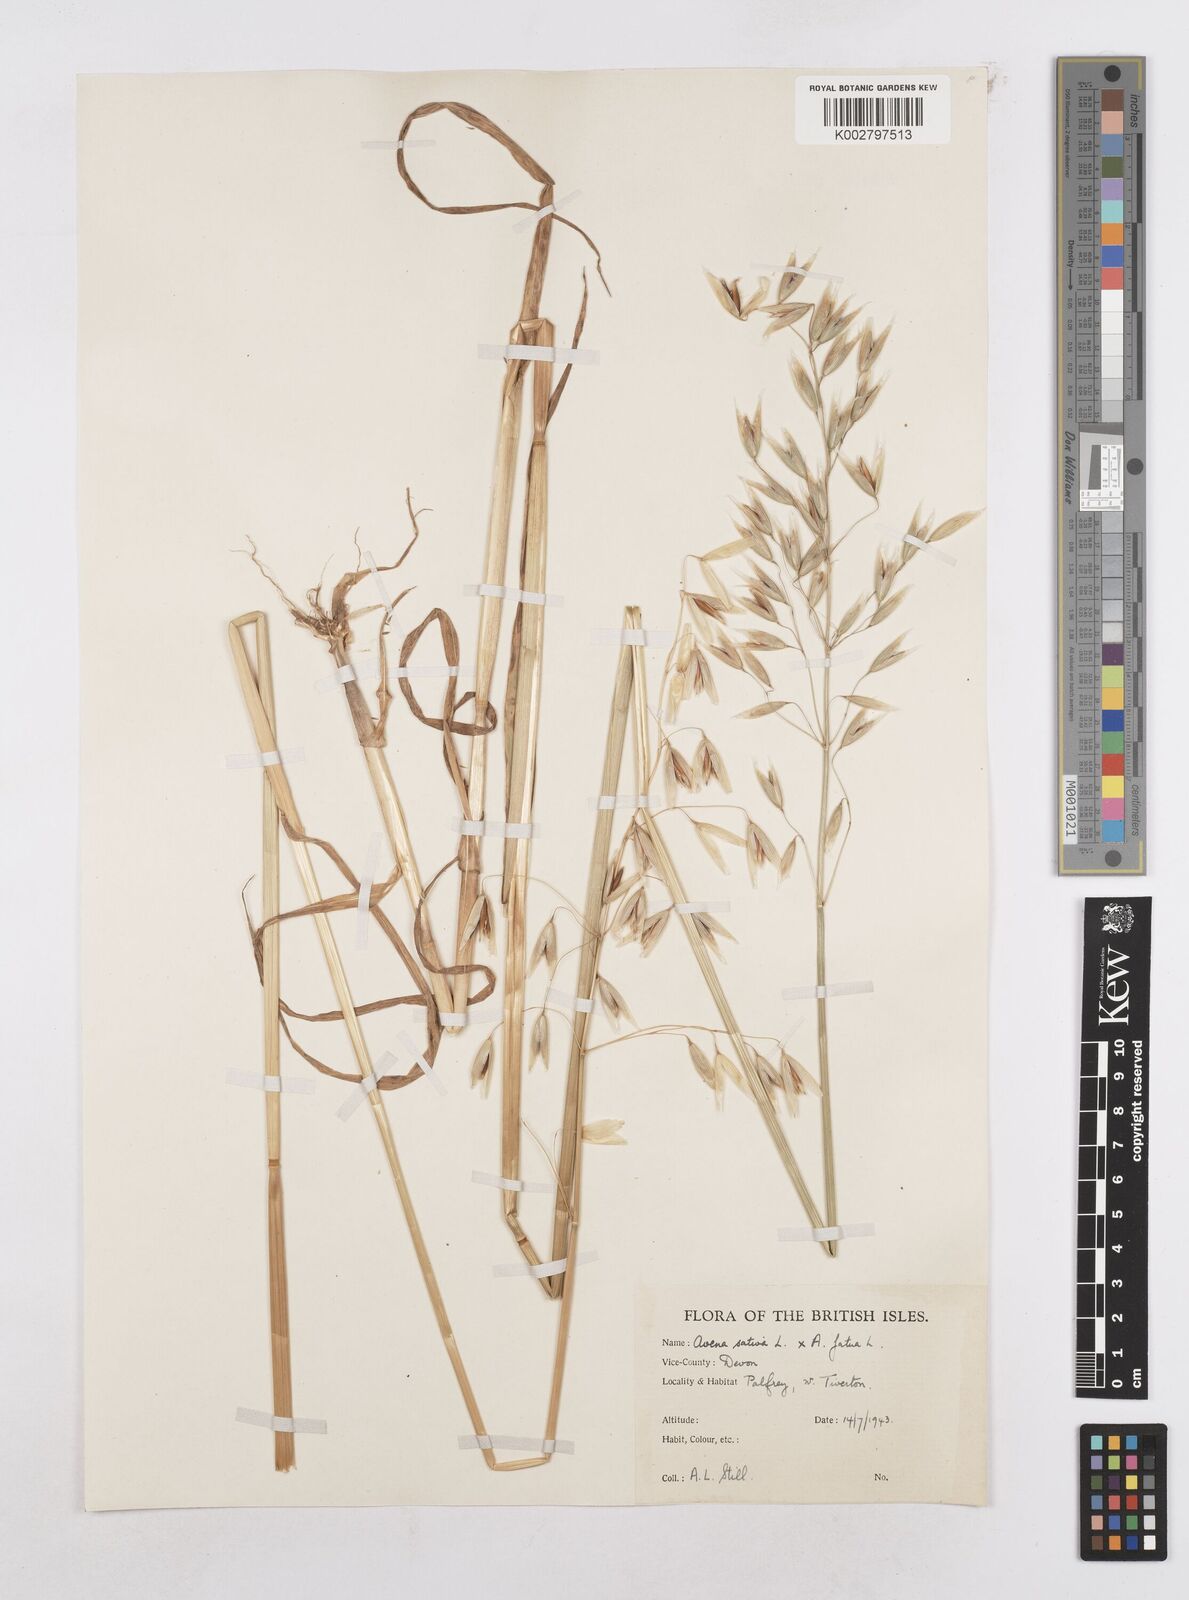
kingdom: Plantae
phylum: Tracheophyta
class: Liliopsida
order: Poales
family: Poaceae
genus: Avena
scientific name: Avena fatua
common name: Wild oat
